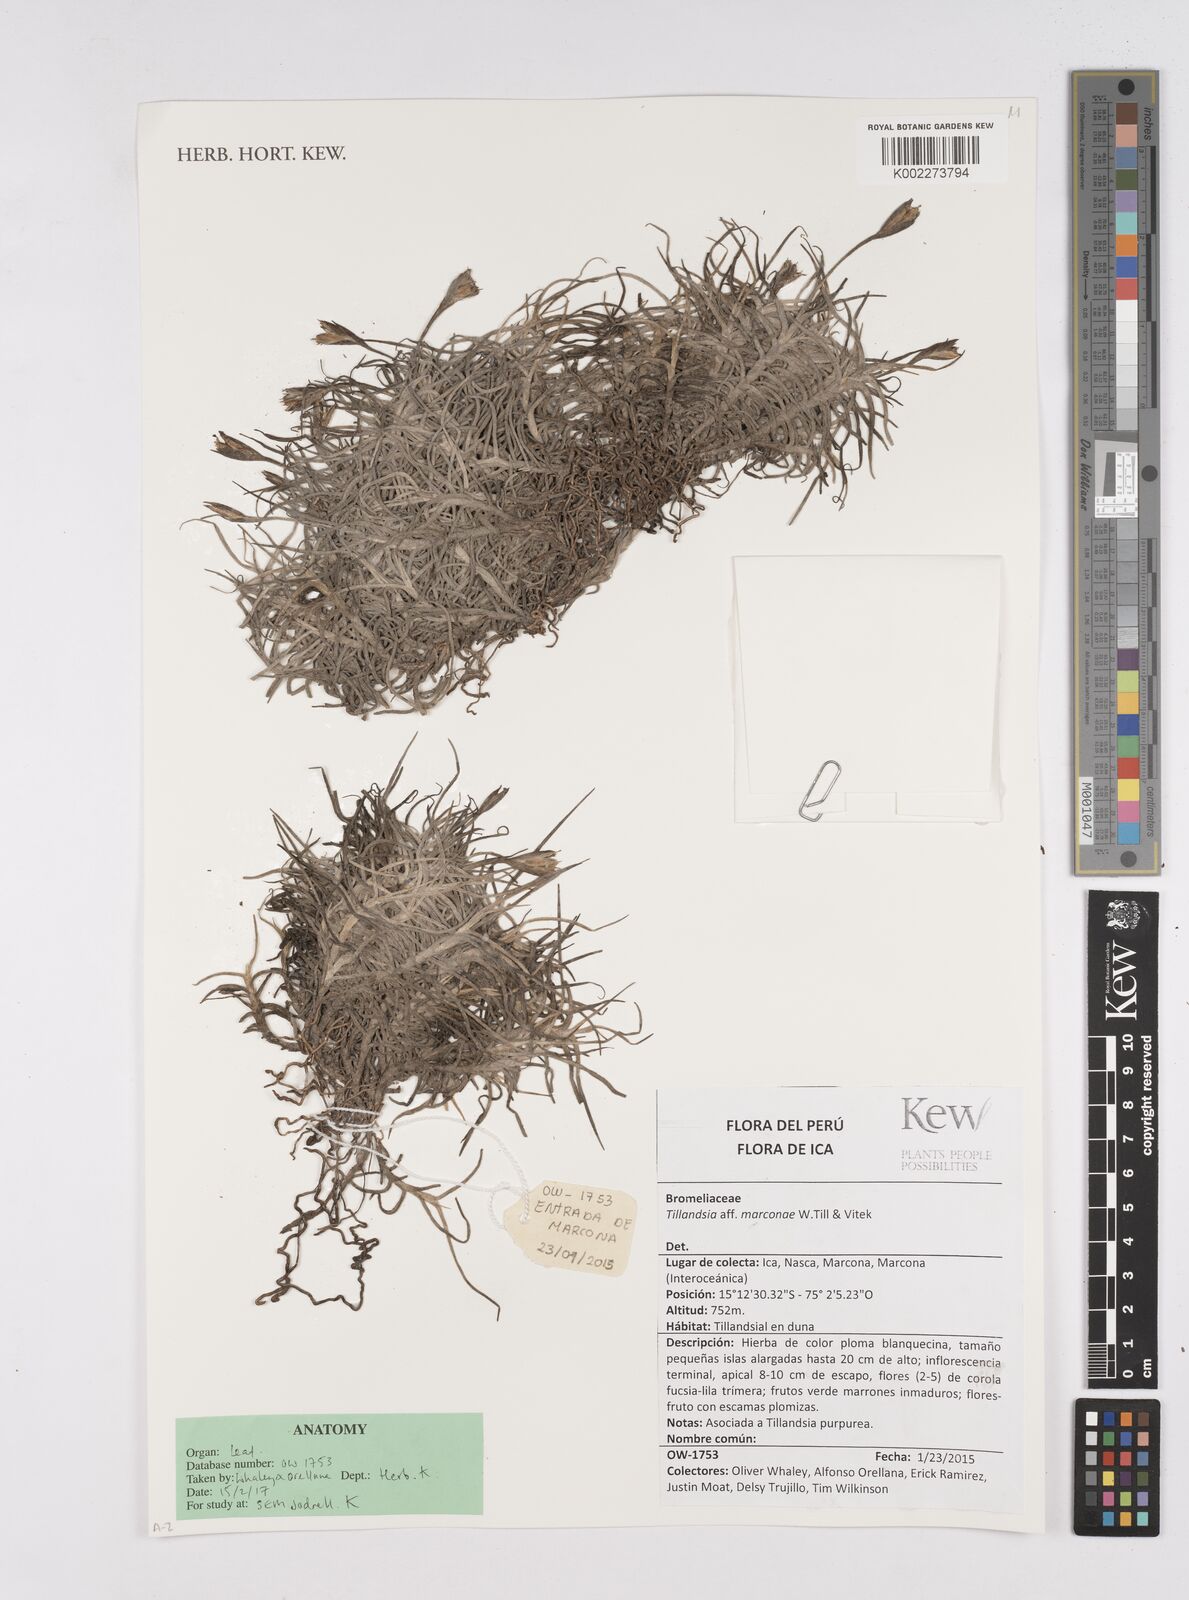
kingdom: Plantae
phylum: Tracheophyta
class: Liliopsida
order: Poales
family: Bromeliaceae
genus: Tillandsia
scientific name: Tillandsia marconae
